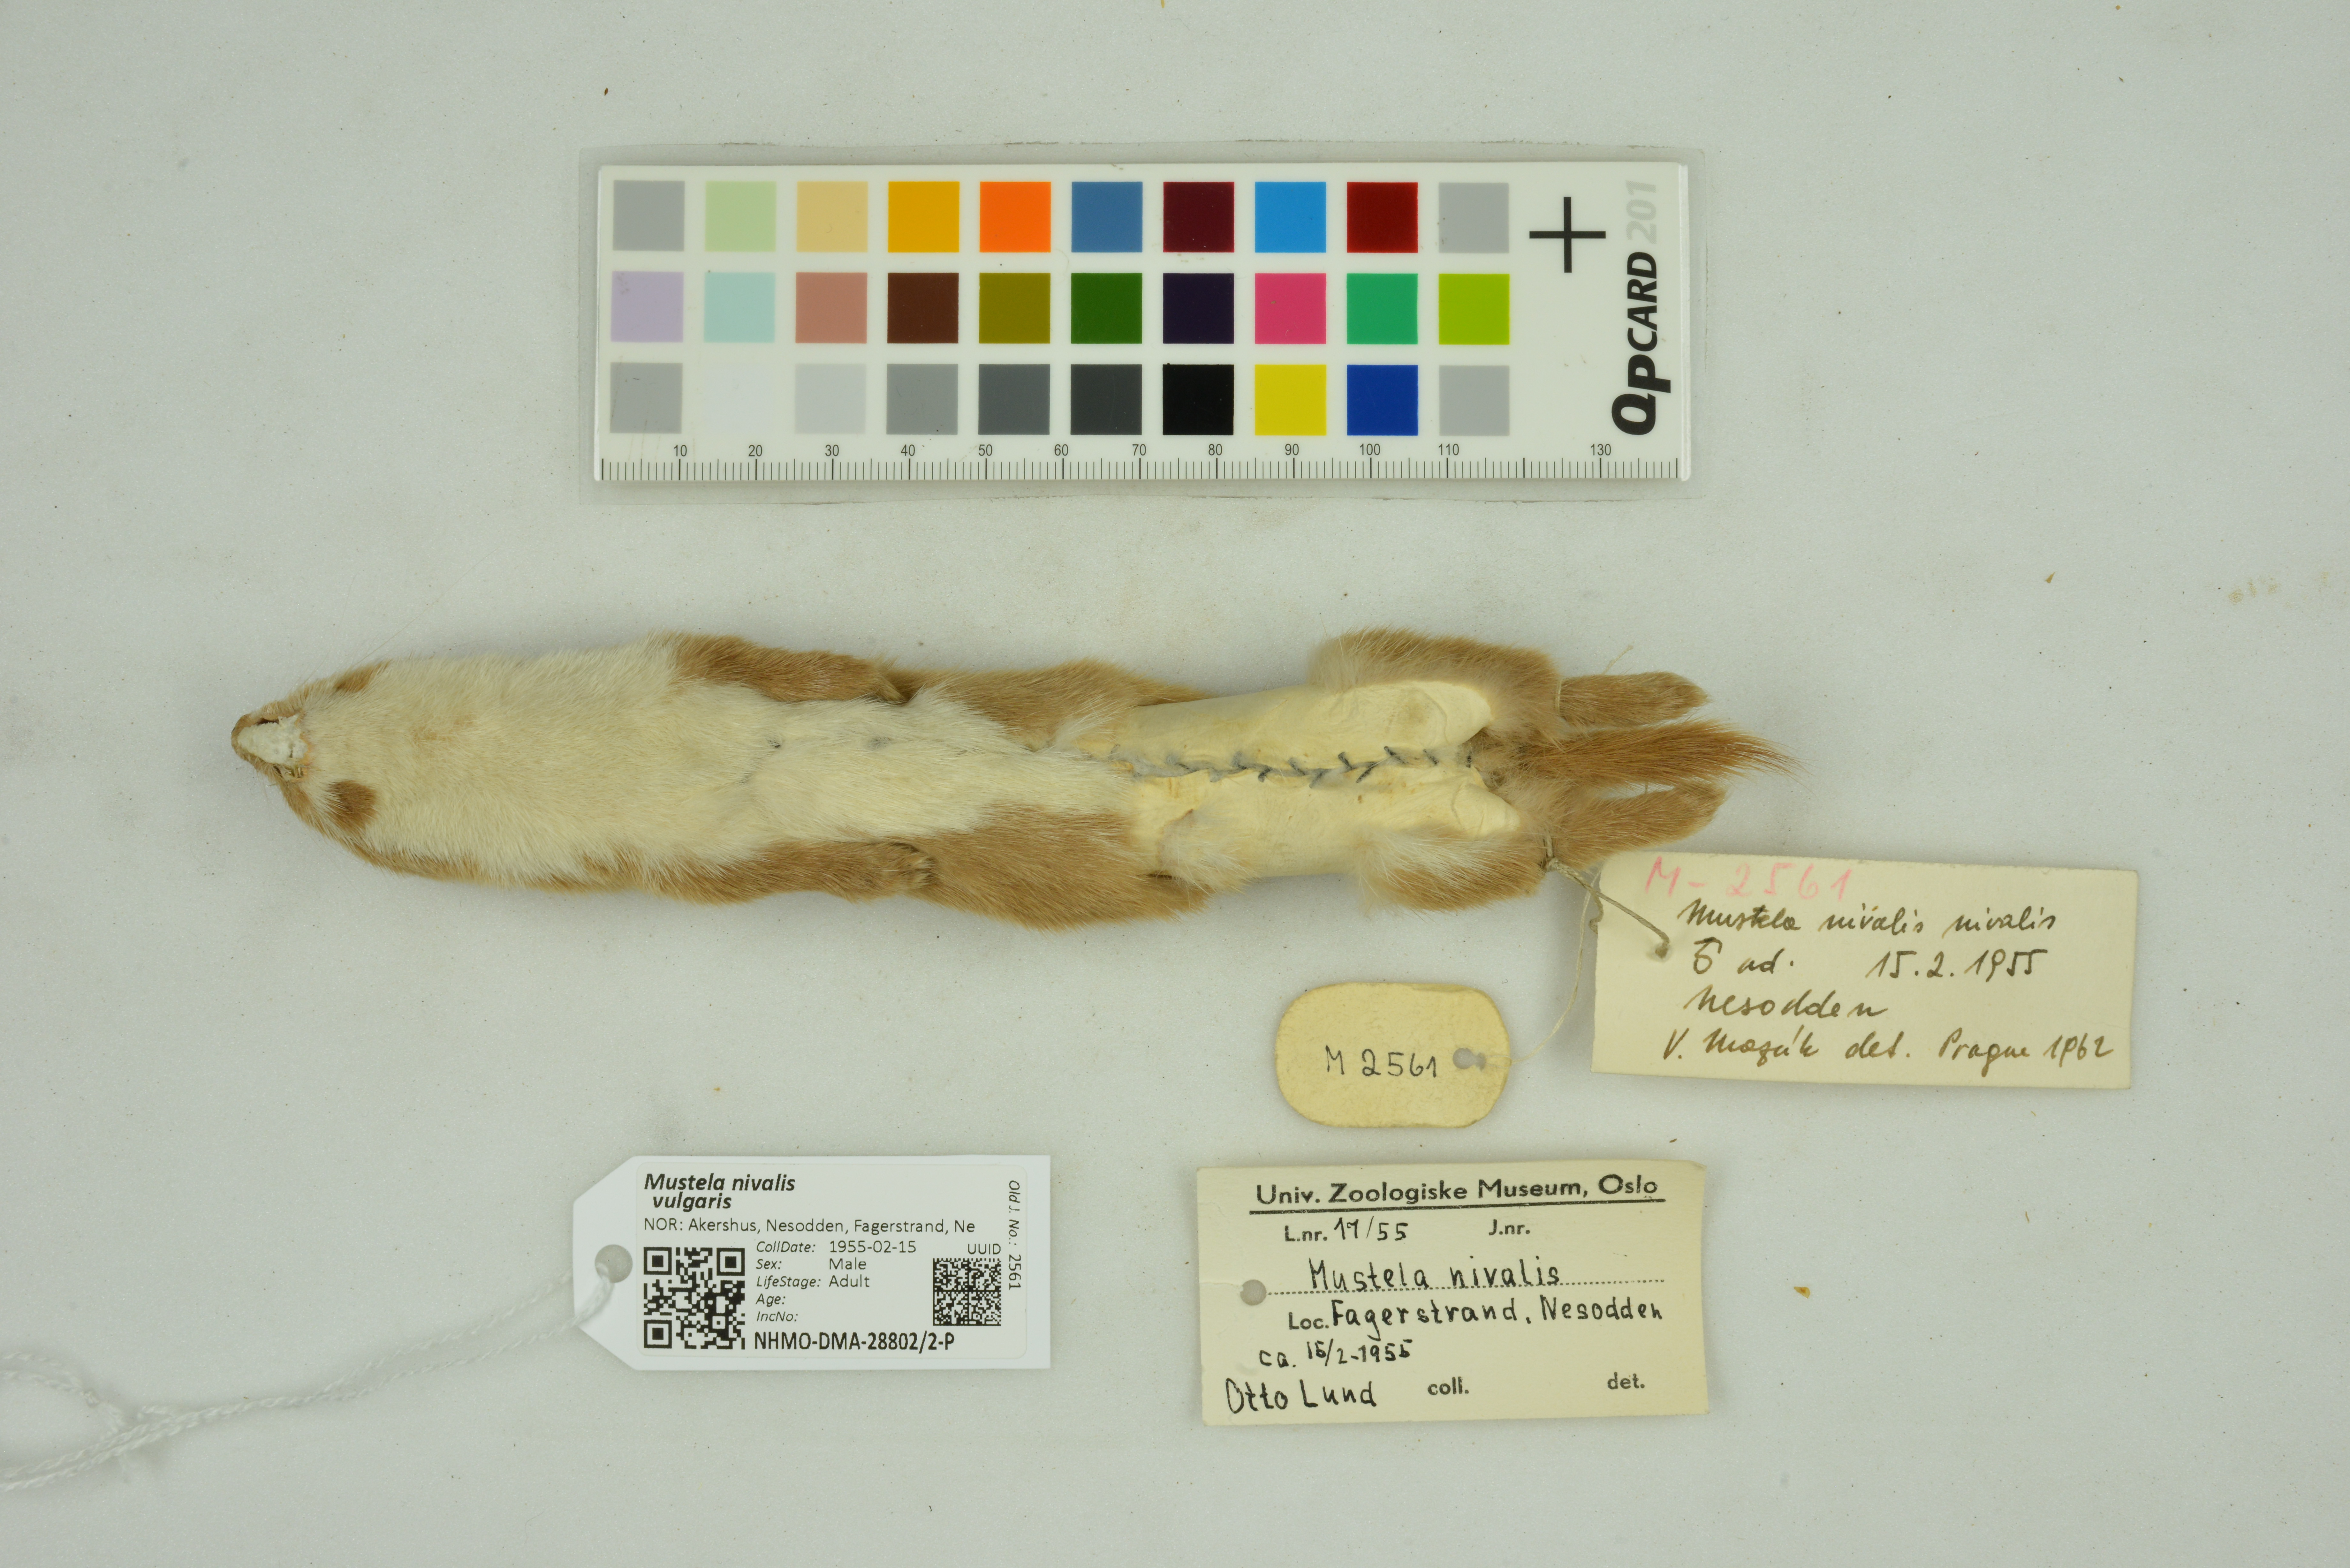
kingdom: Animalia
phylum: Chordata
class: Mammalia
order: Carnivora
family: Mustelidae
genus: Mustela
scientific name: Mustela nivalis
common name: Least weasel
